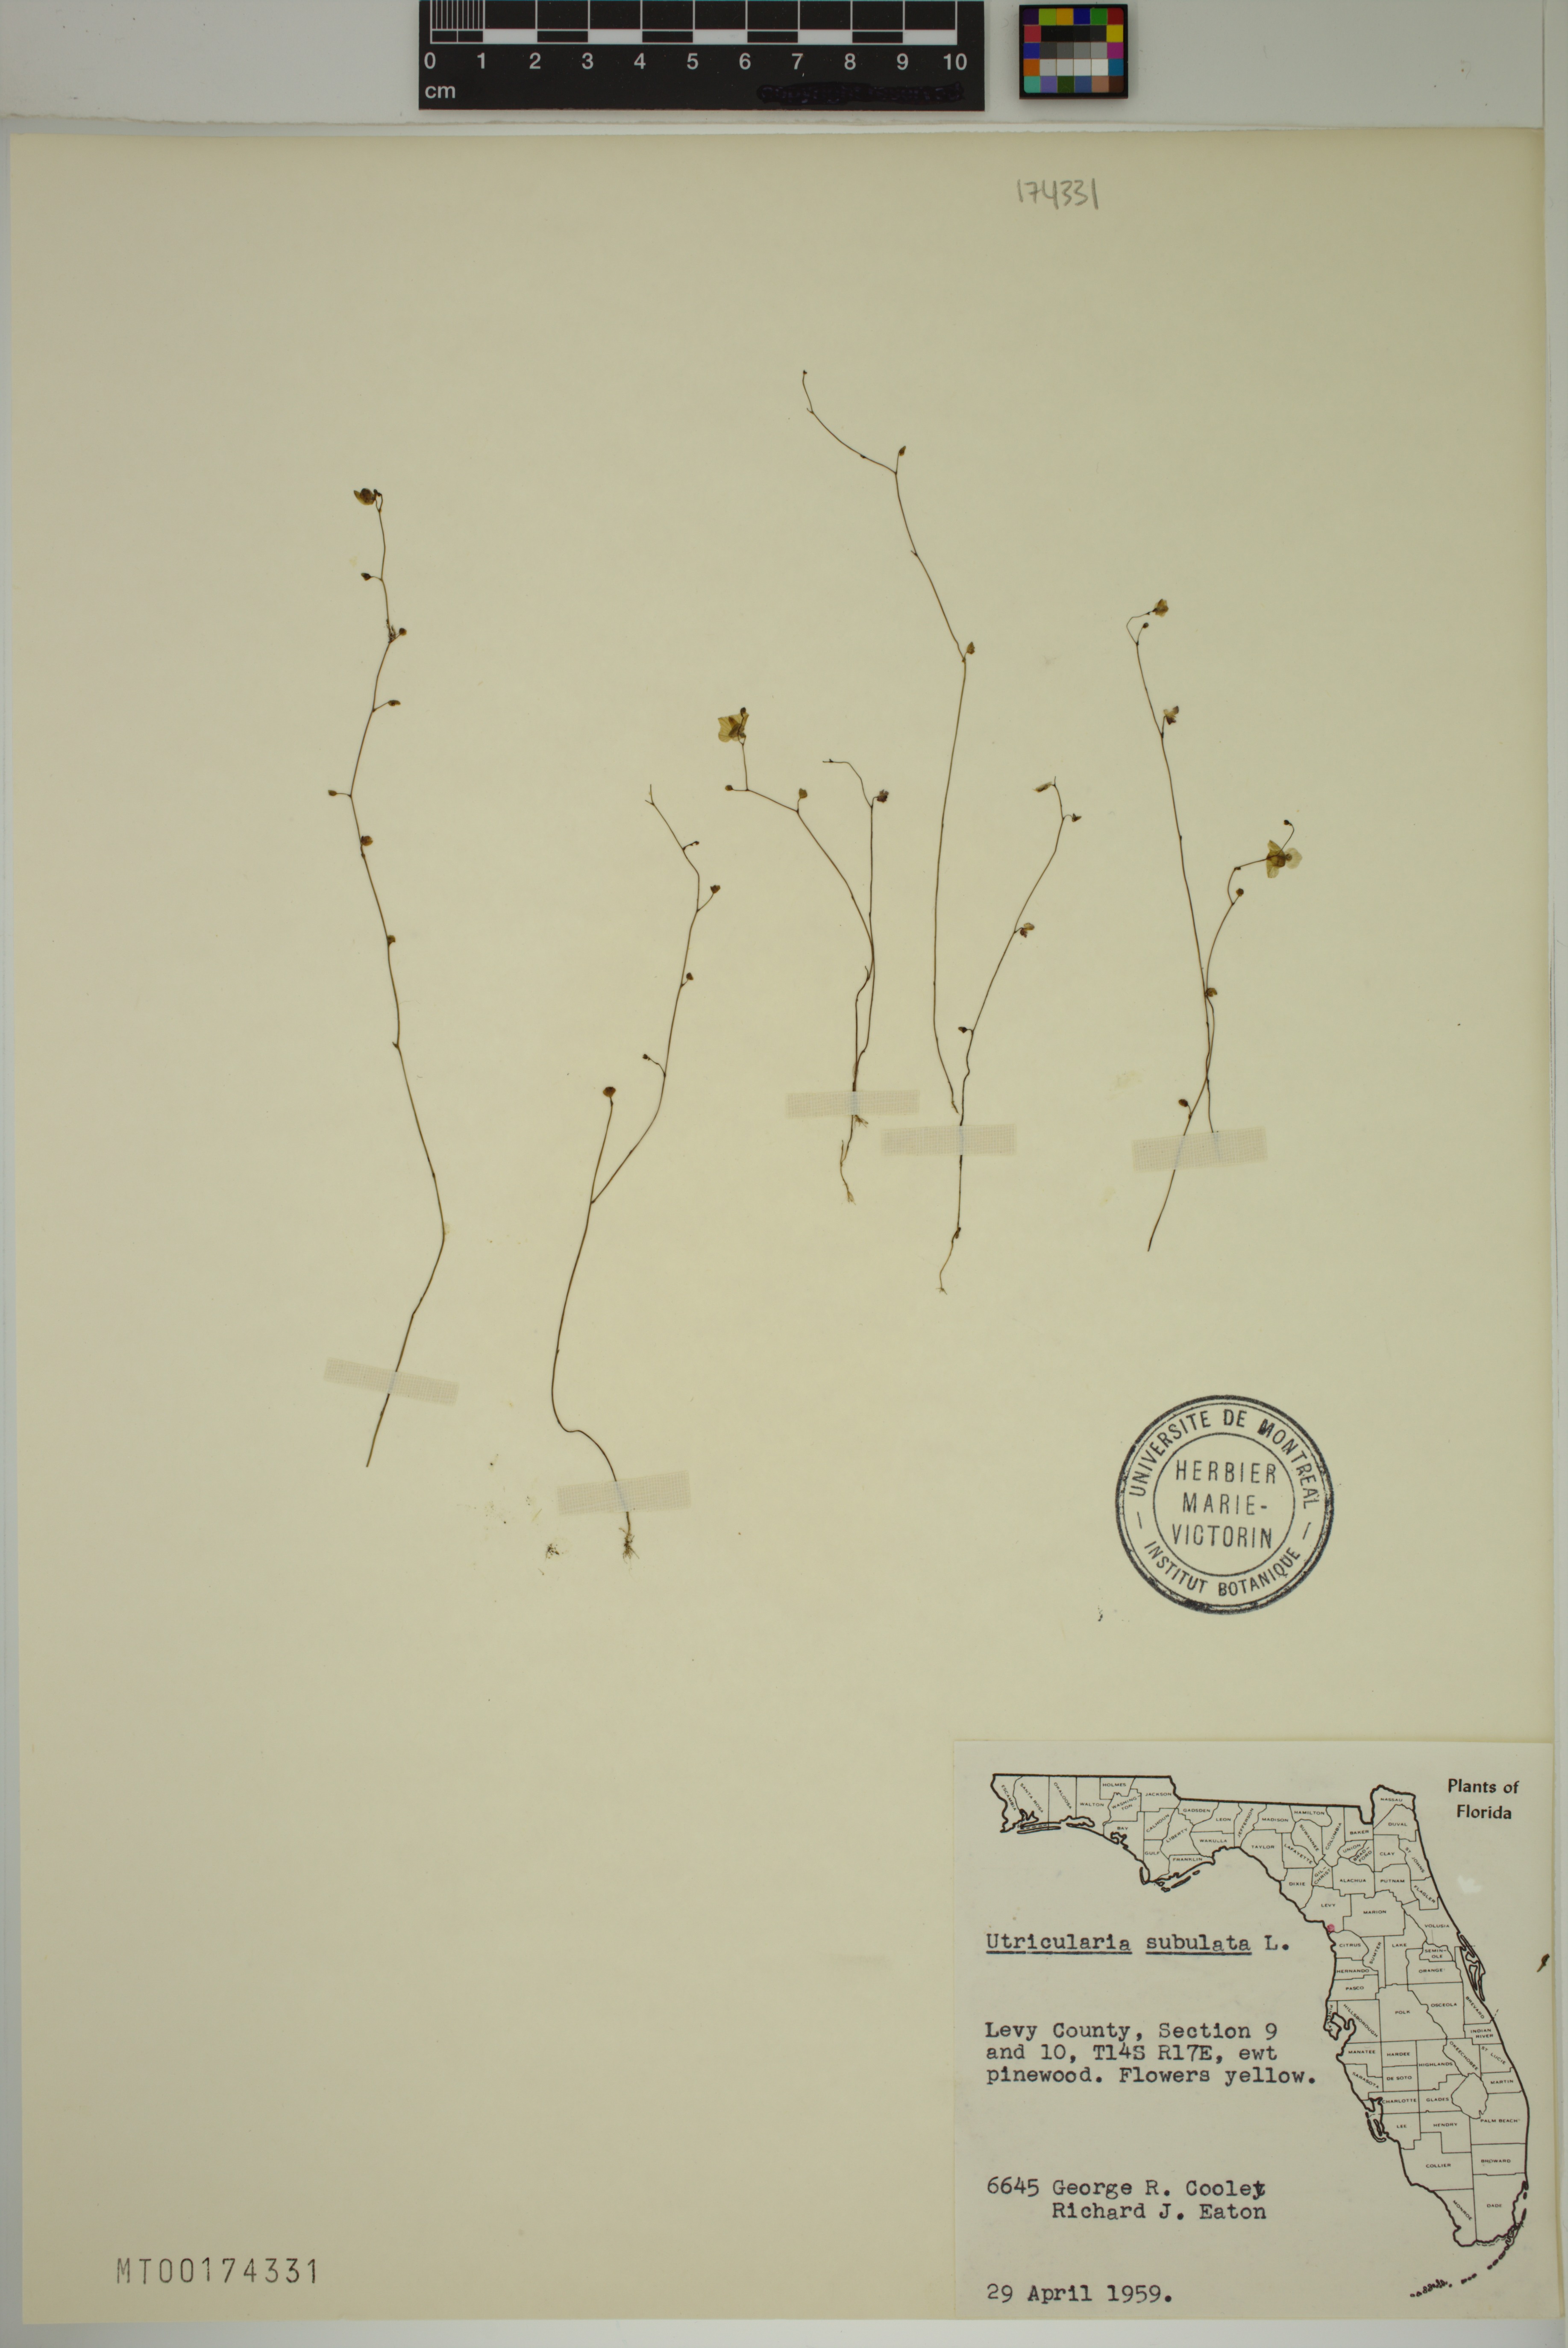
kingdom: Plantae
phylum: Tracheophyta
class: Magnoliopsida
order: Lamiales
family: Lentibulariaceae
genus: Utricularia
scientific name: Utricularia subulata
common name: Tiny bladderwort
